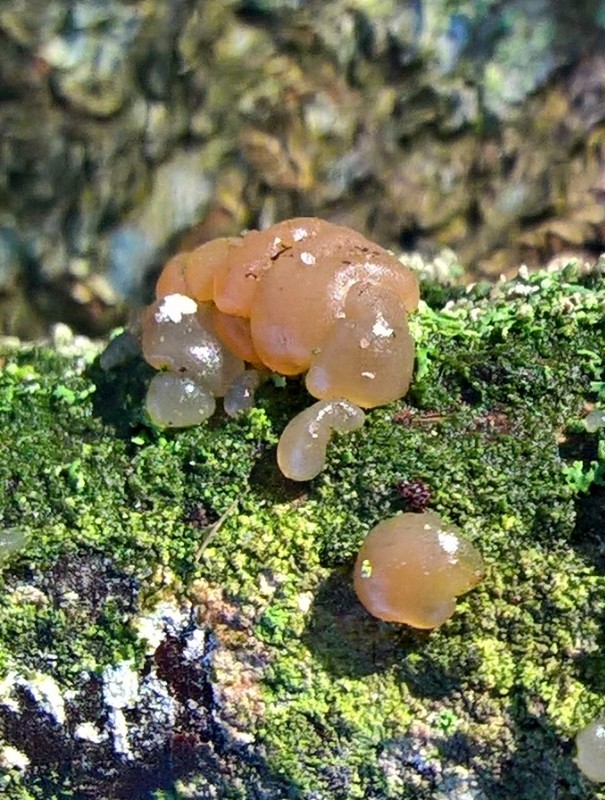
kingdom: Fungi
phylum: Basidiomycota
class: Agaricomycetes
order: Auriculariales
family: Hyaloriaceae
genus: Myxarium
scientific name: Myxarium hyalinum
